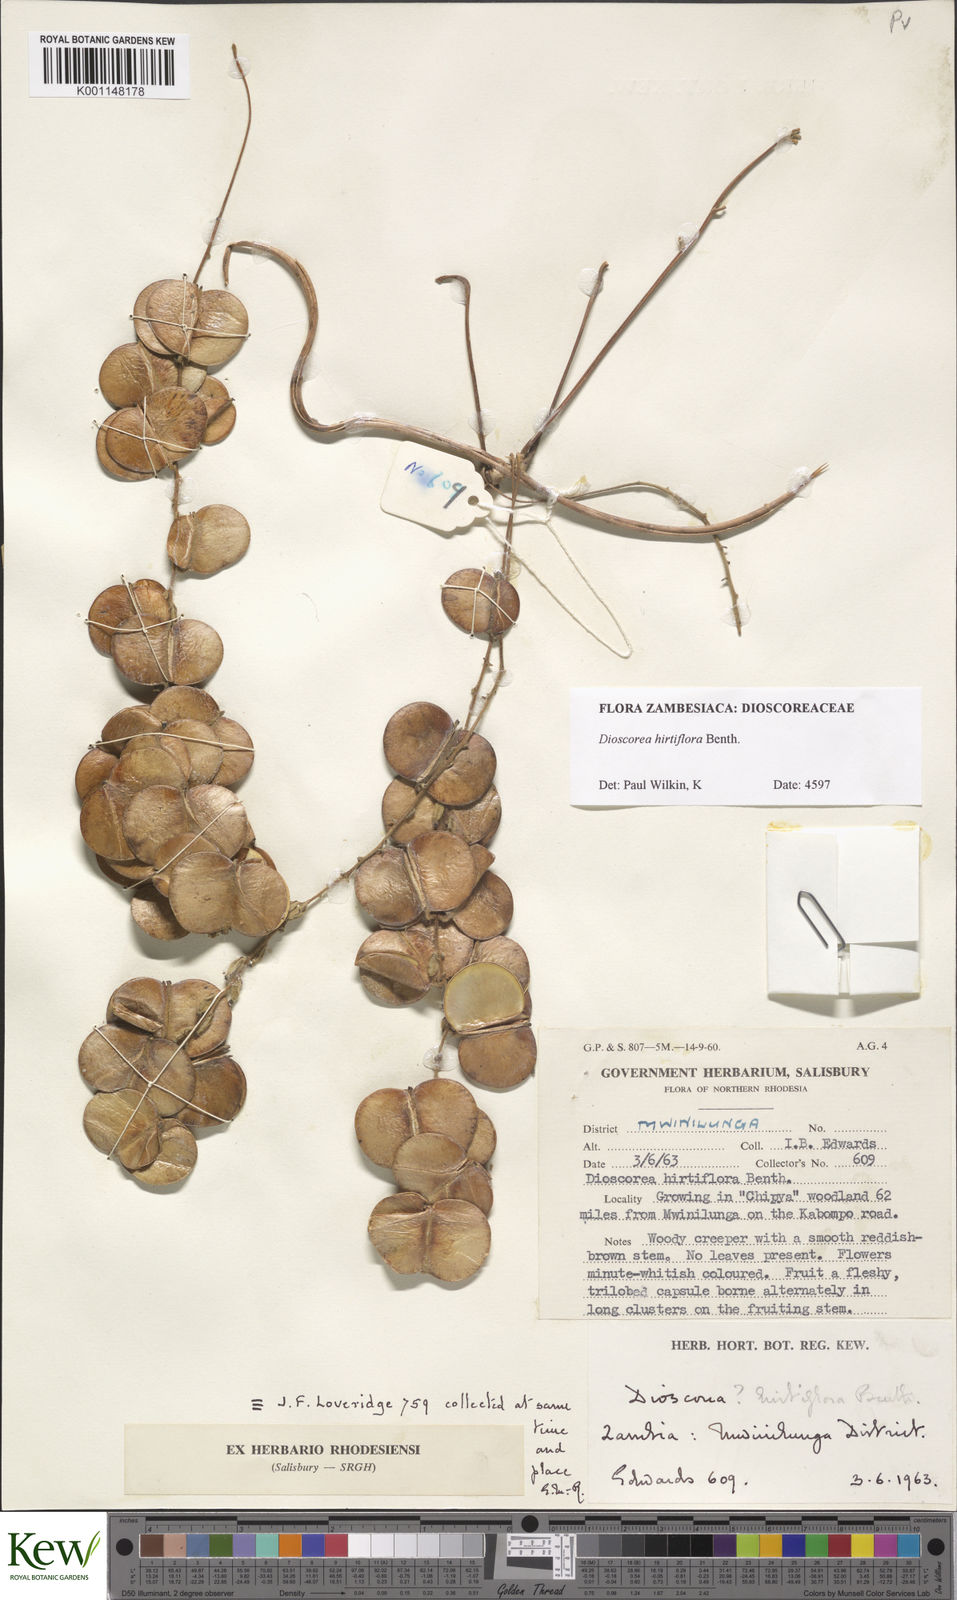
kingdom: Plantae
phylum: Tracheophyta
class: Liliopsida
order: Dioscoreales
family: Dioscoreaceae
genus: Dioscorea
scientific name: Dioscorea hirtiflora
